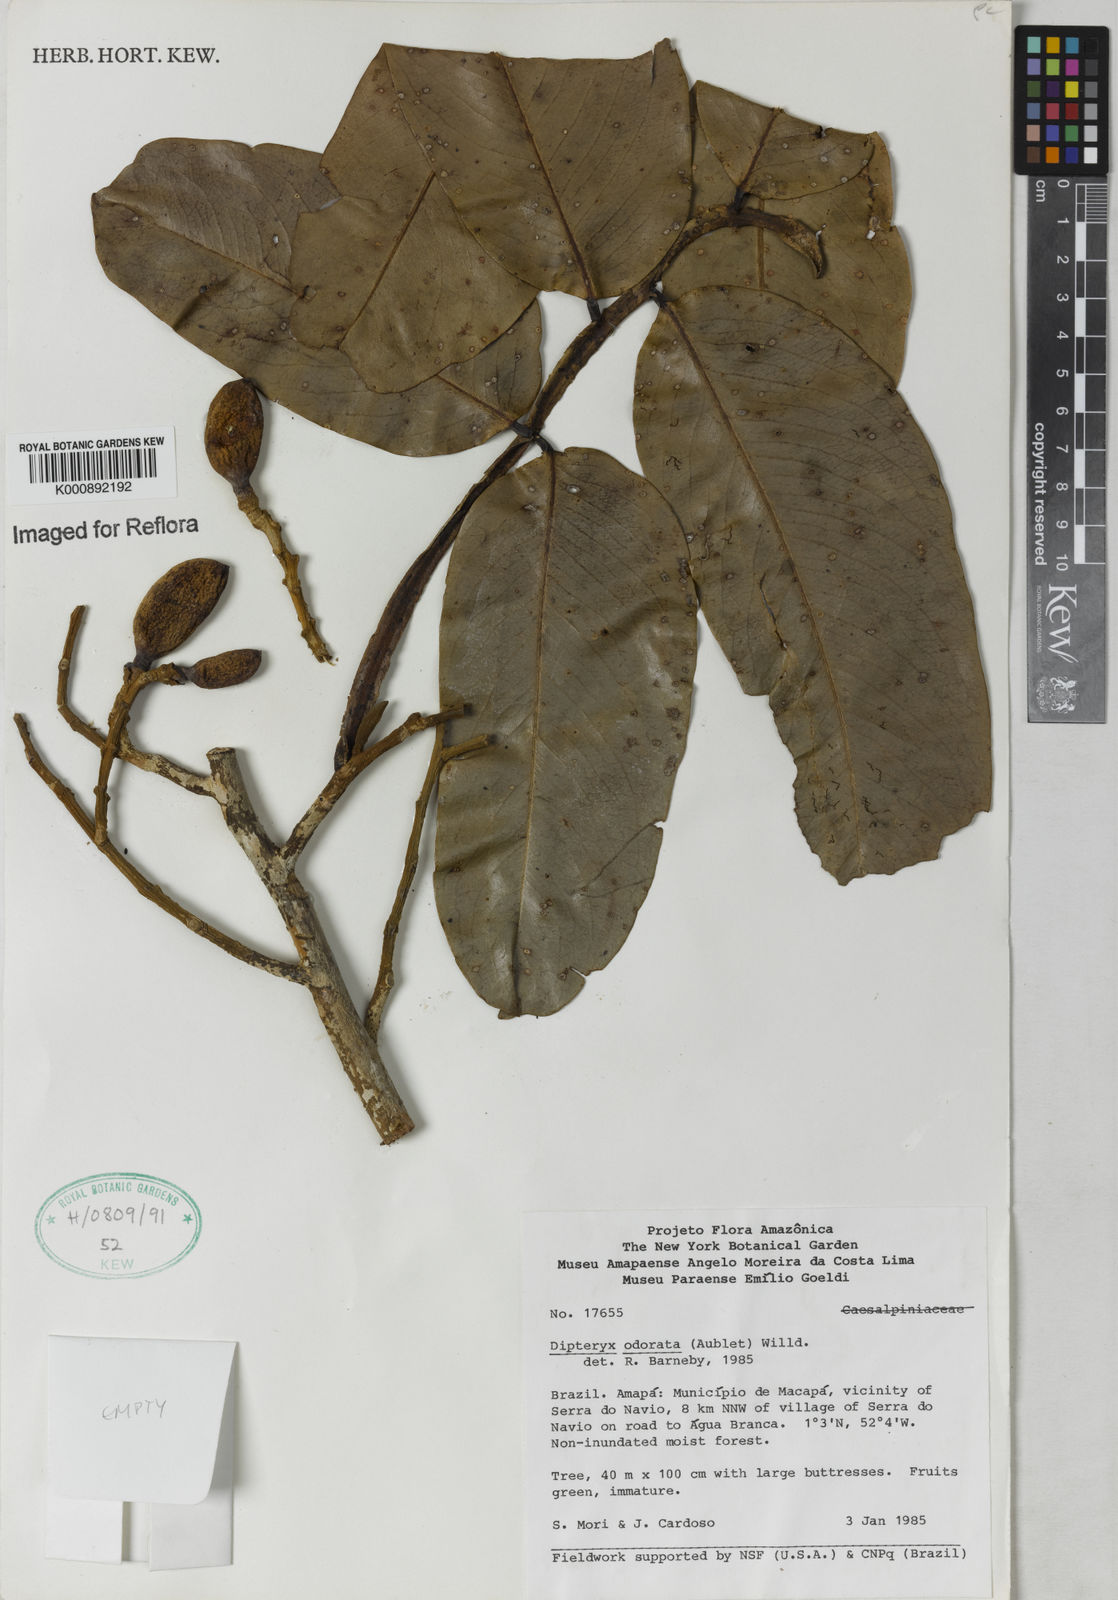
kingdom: Plantae
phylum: Tracheophyta
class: Magnoliopsida
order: Fabales
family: Fabaceae
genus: Dipteryx
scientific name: Dipteryx
